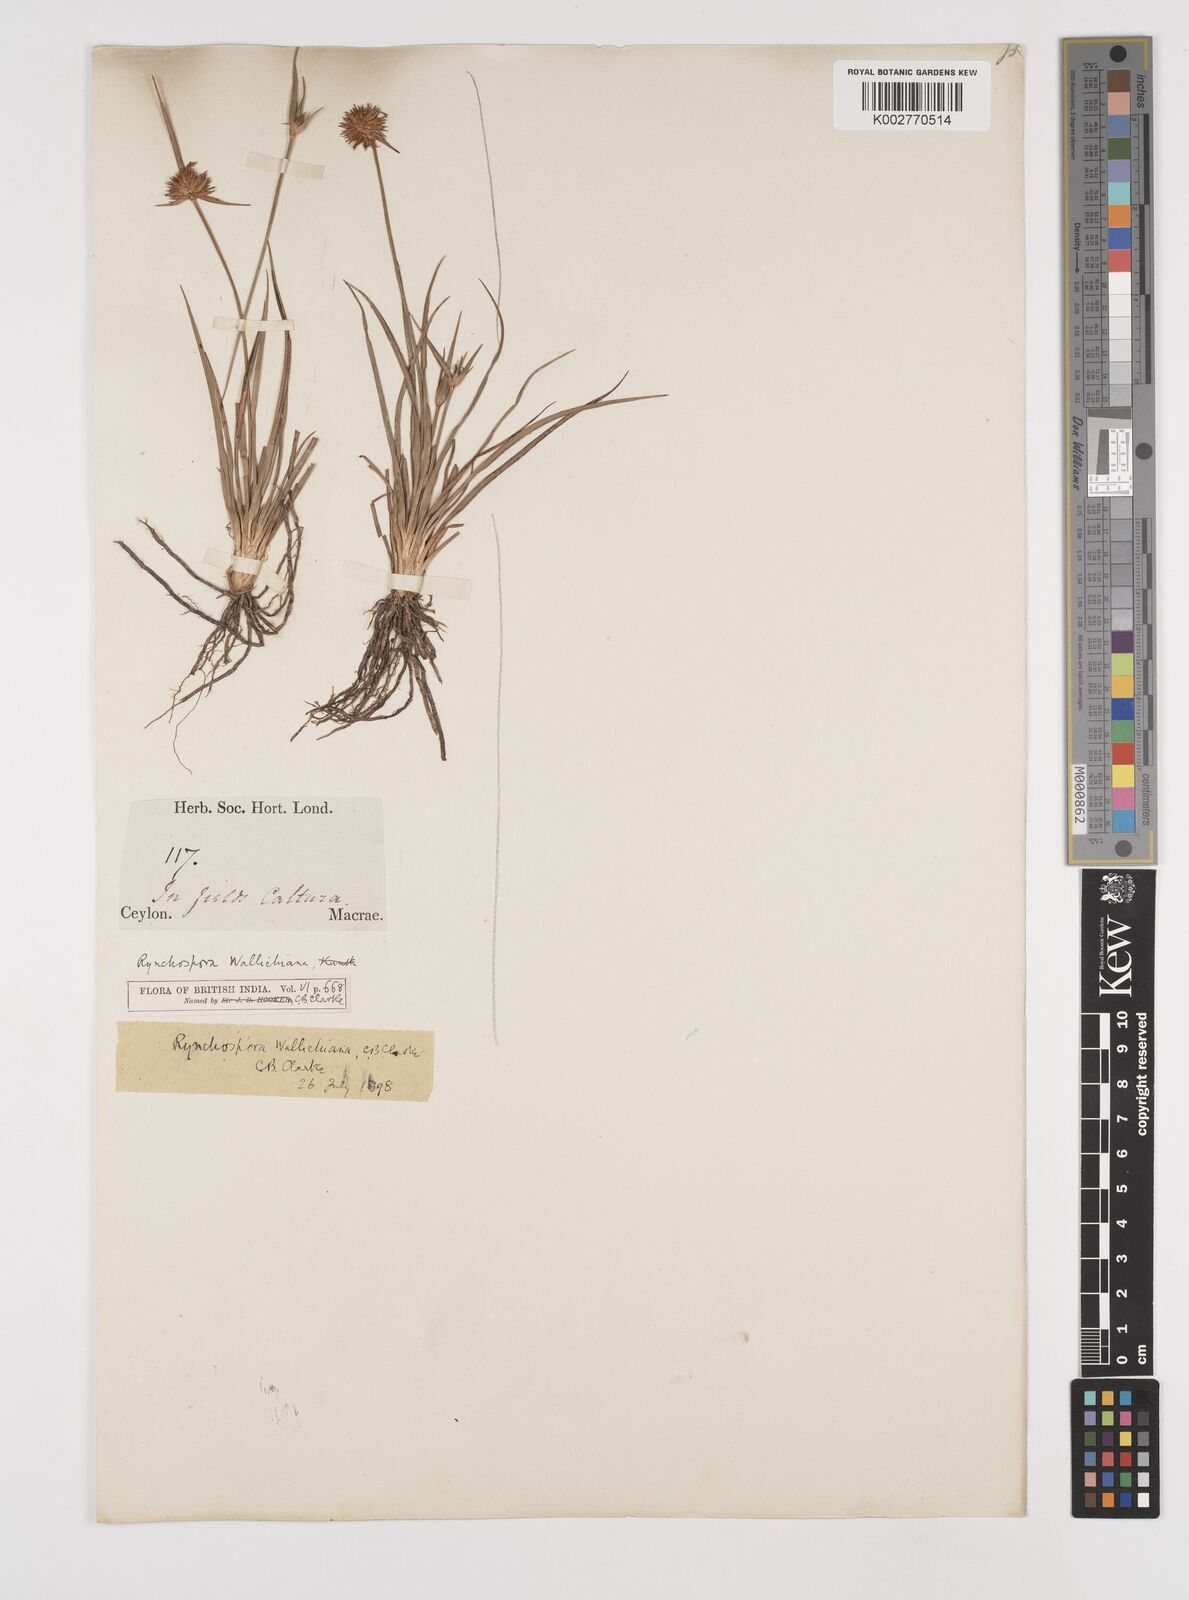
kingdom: Plantae
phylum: Tracheophyta
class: Liliopsida
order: Poales
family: Cyperaceae
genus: Rhynchospora
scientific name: Rhynchospora rubra
